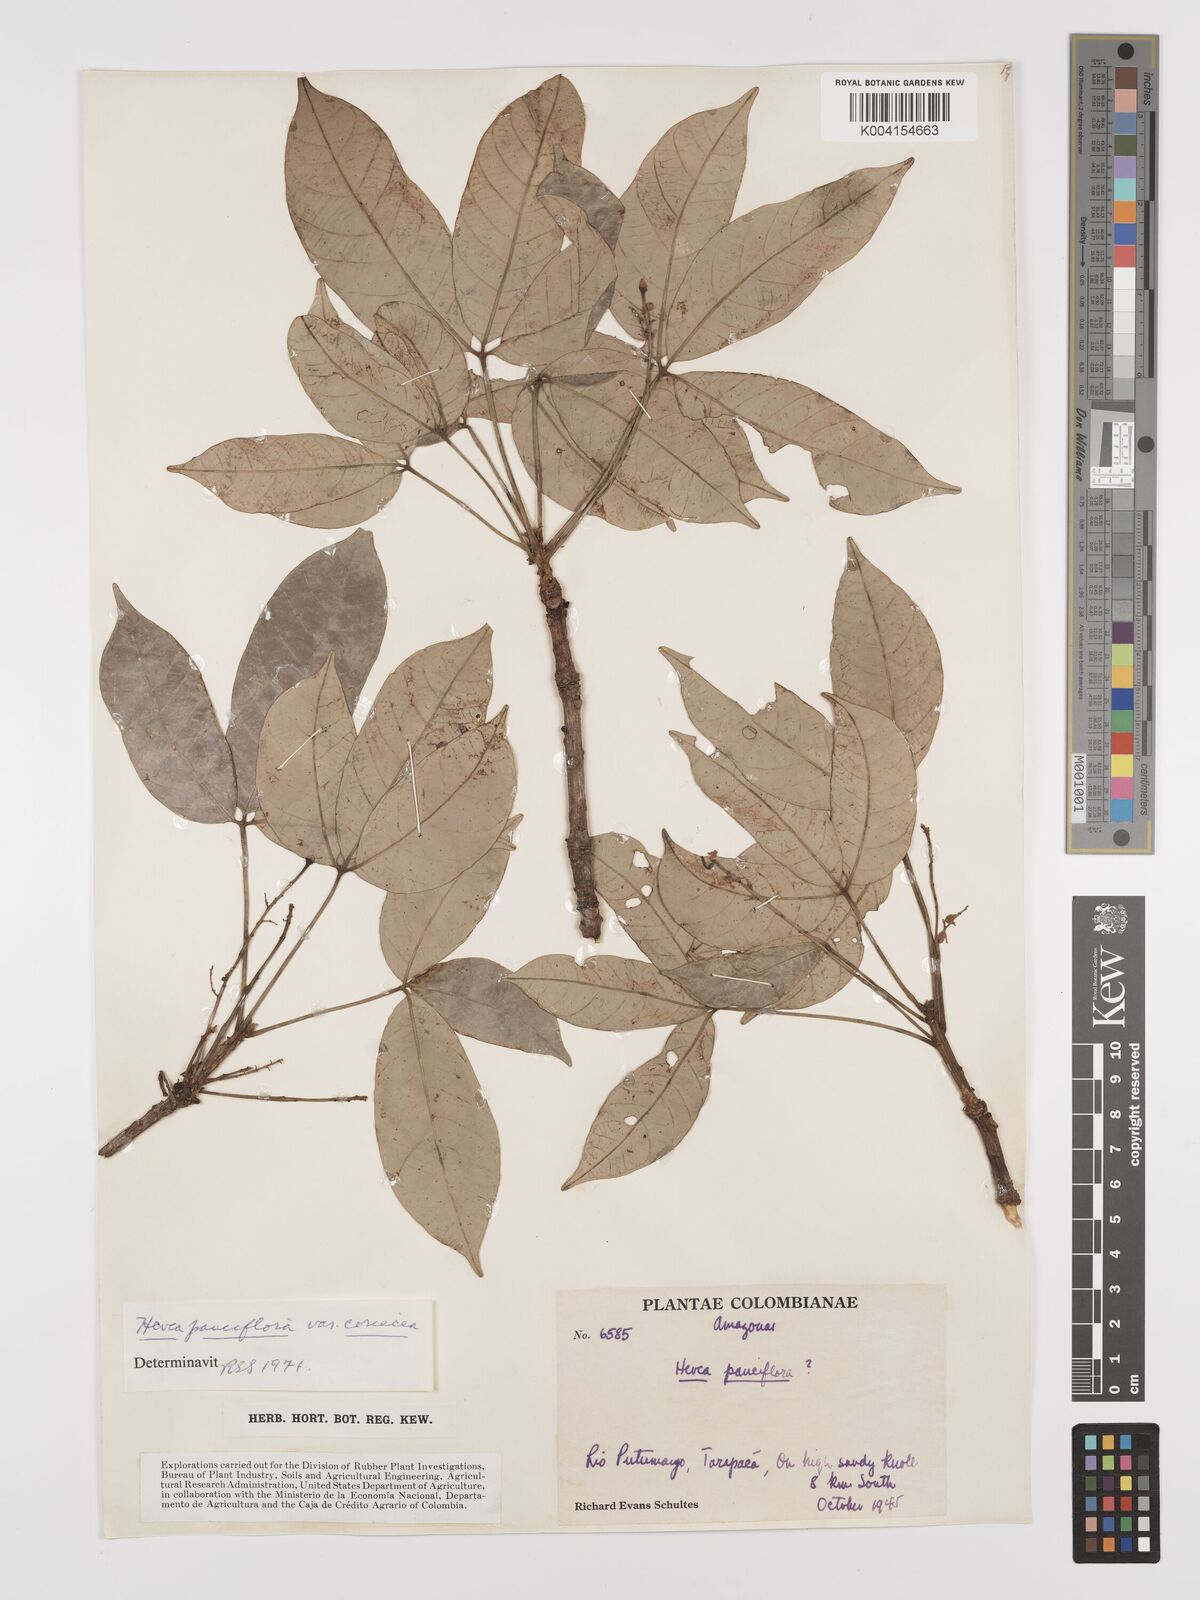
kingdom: Plantae
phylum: Tracheophyta
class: Magnoliopsida
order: Malpighiales
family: Euphorbiaceae
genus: Hevea
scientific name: Hevea pauciflora
